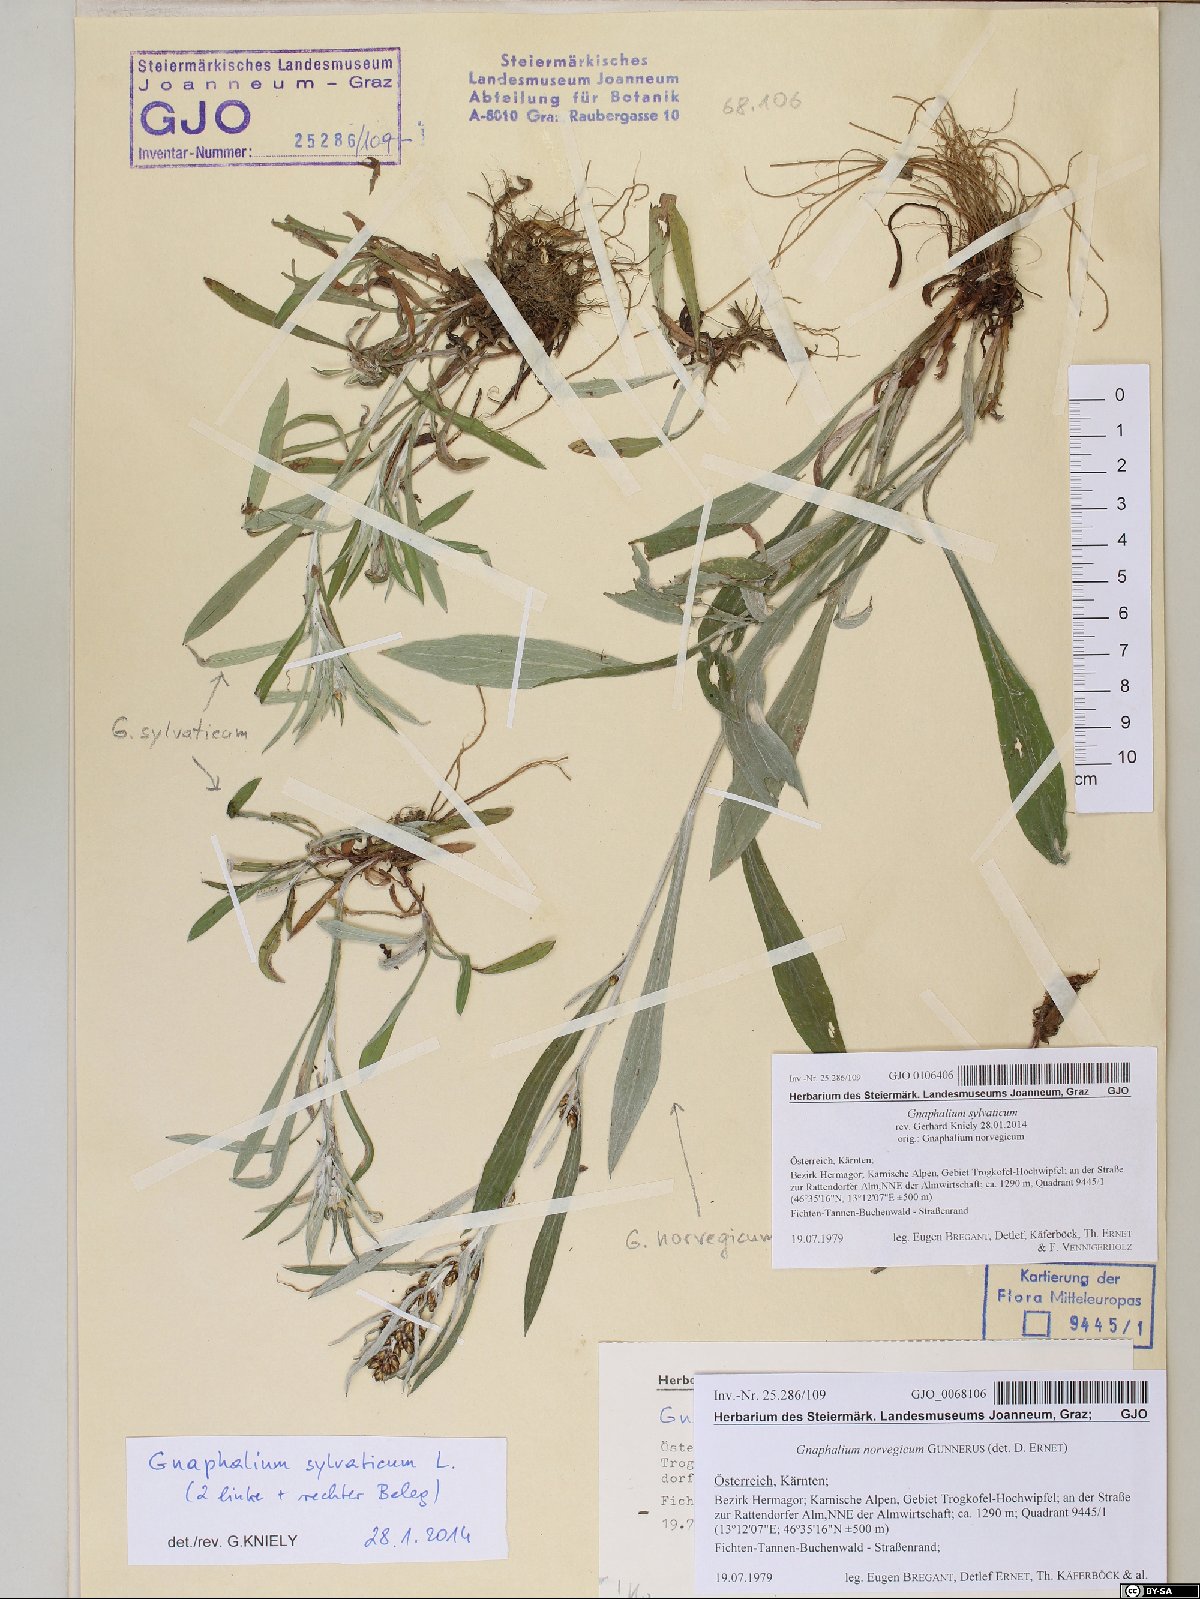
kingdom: Plantae
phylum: Tracheophyta
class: Magnoliopsida
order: Asterales
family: Asteraceae
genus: Omalotheca
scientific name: Omalotheca sylvatica
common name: Heath cudweed
